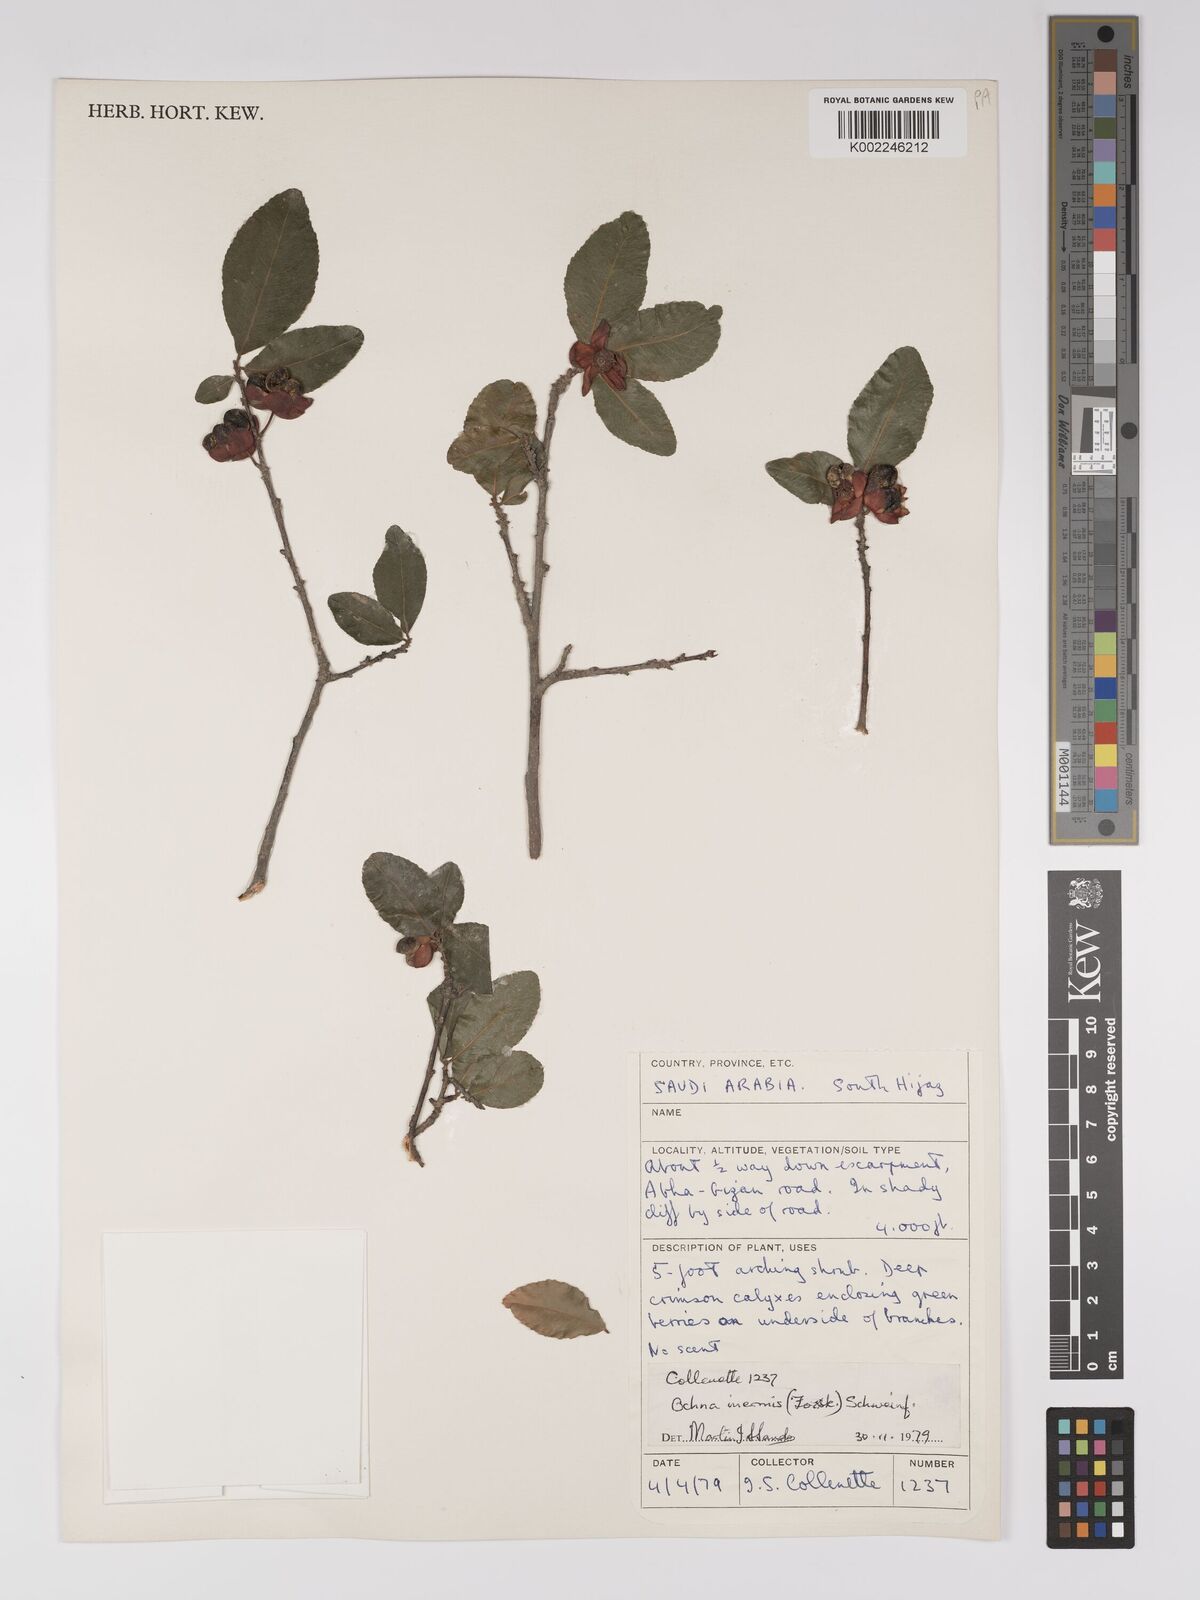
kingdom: Plantae
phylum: Tracheophyta
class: Magnoliopsida
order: Malpighiales
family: Ochnaceae
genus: Ochna
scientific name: Ochna inermis
